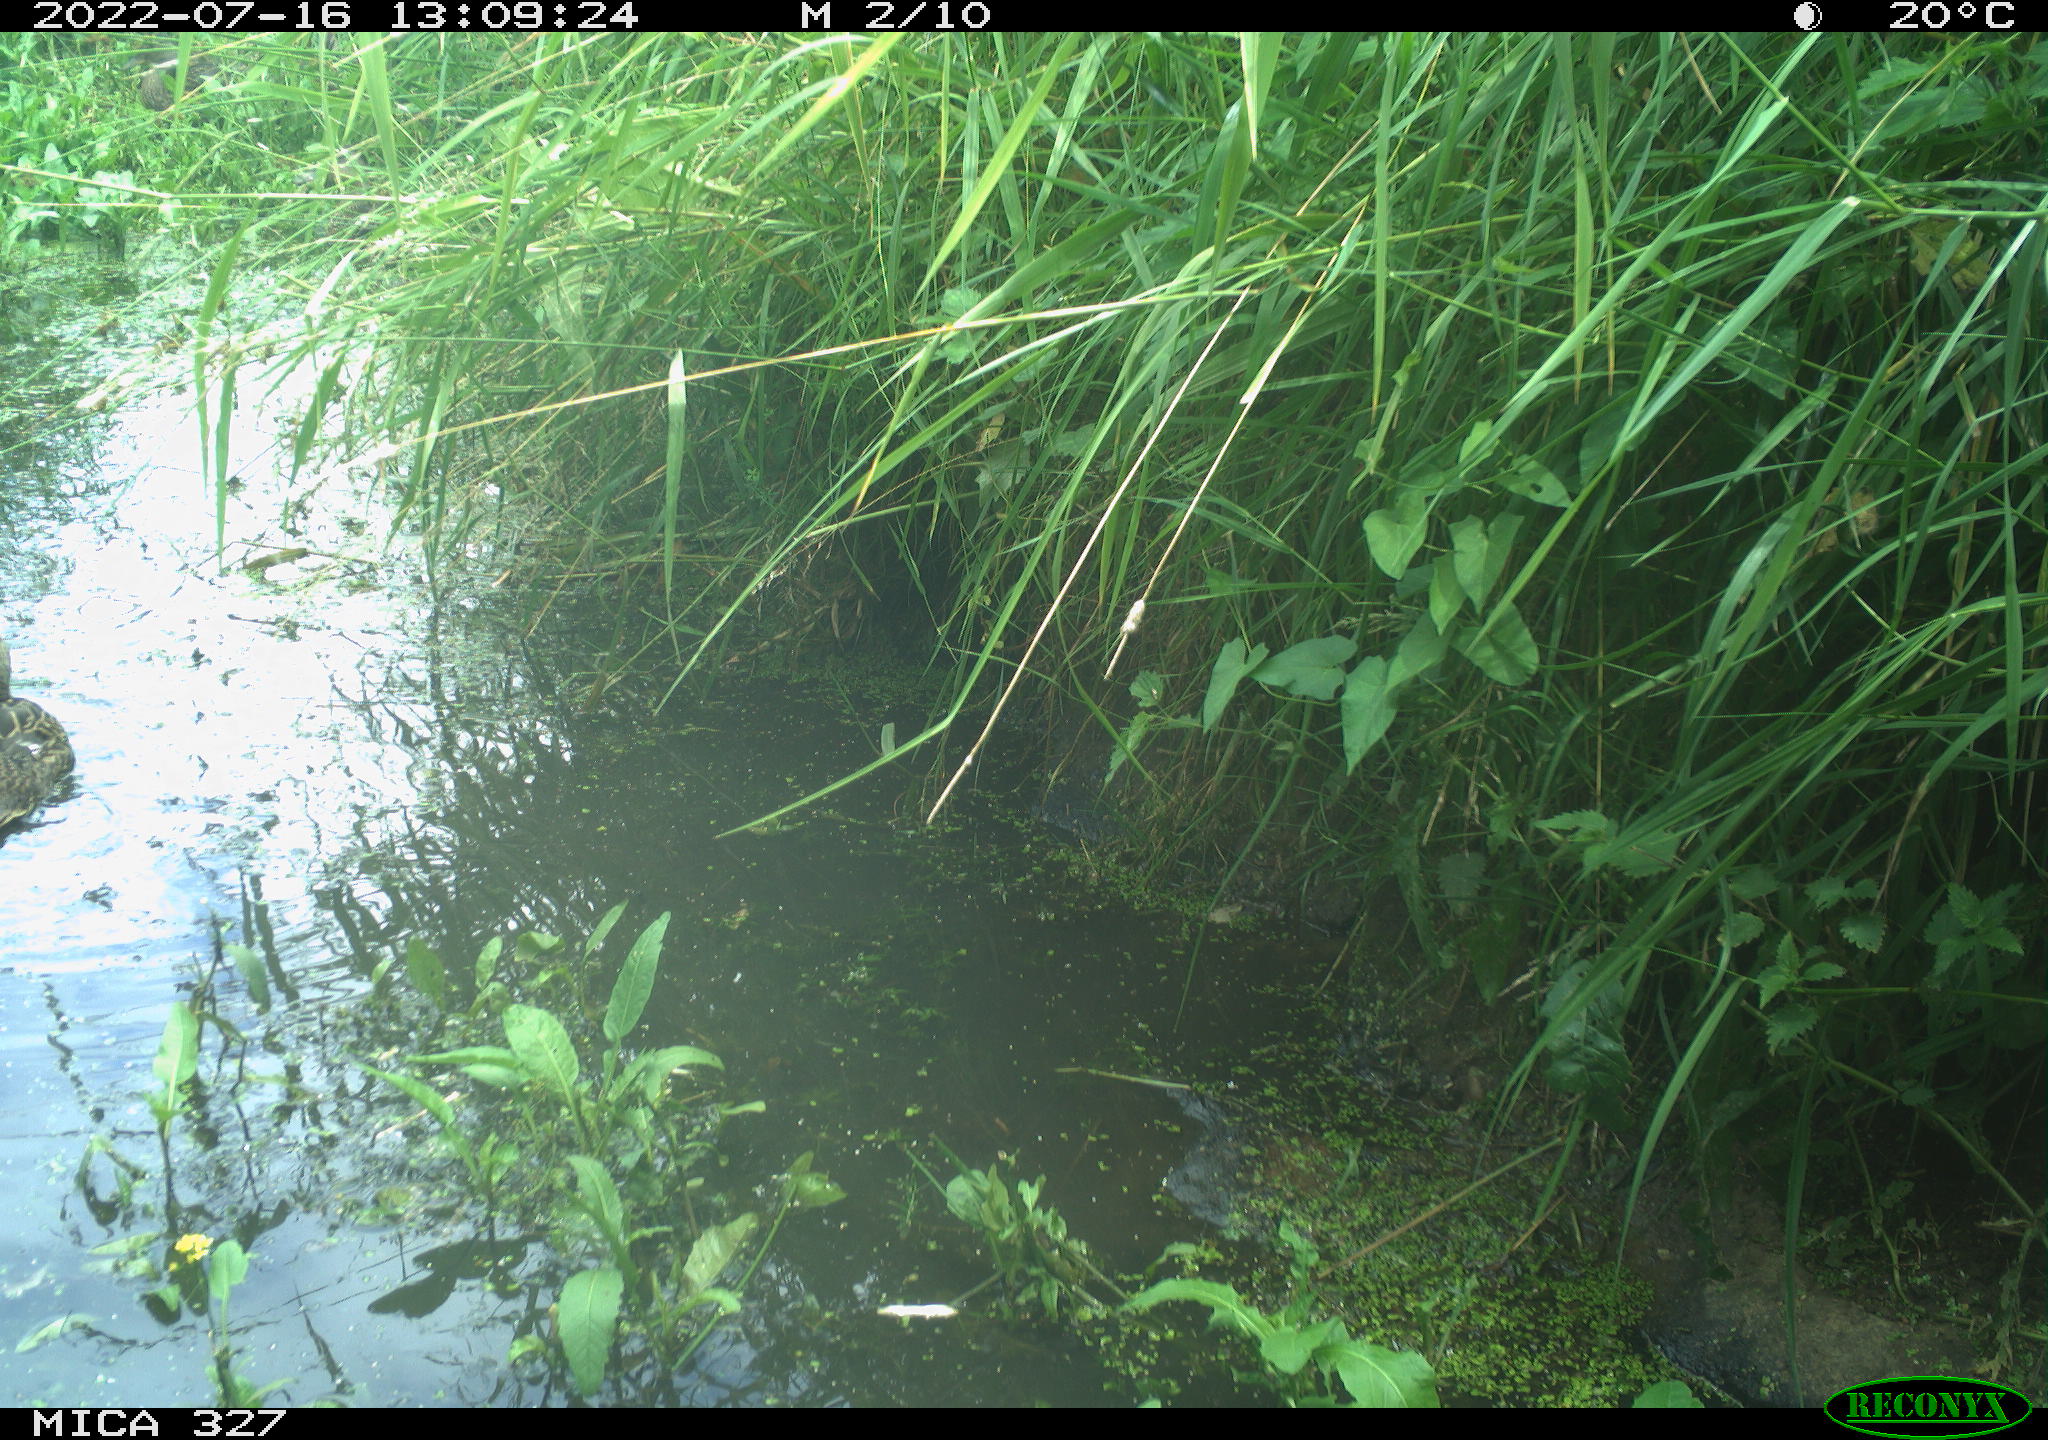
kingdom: Animalia
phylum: Chordata
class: Aves
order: Anseriformes
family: Anatidae
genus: Anas
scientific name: Anas
